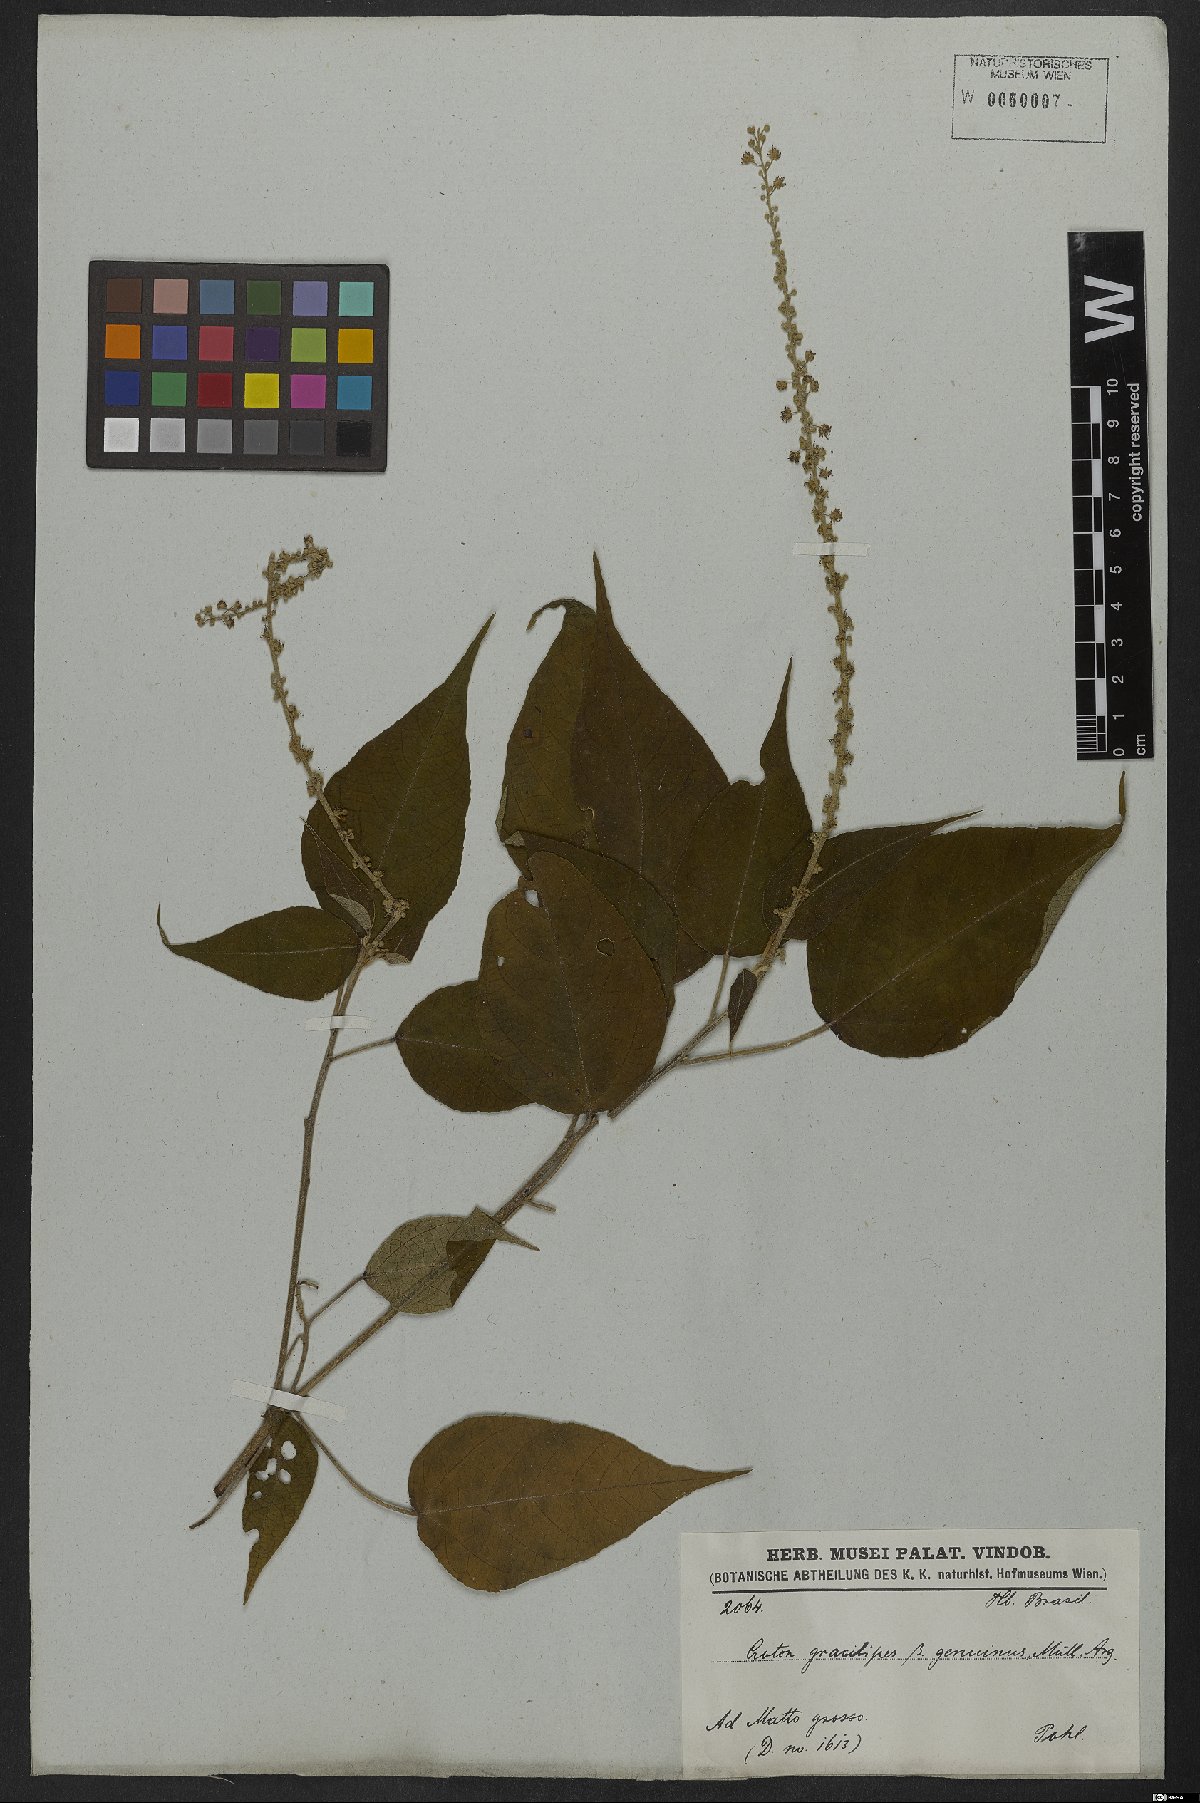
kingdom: Plantae
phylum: Tracheophyta
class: Magnoliopsida
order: Malpighiales
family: Euphorbiaceae
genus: Croton
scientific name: Croton gracilipes
